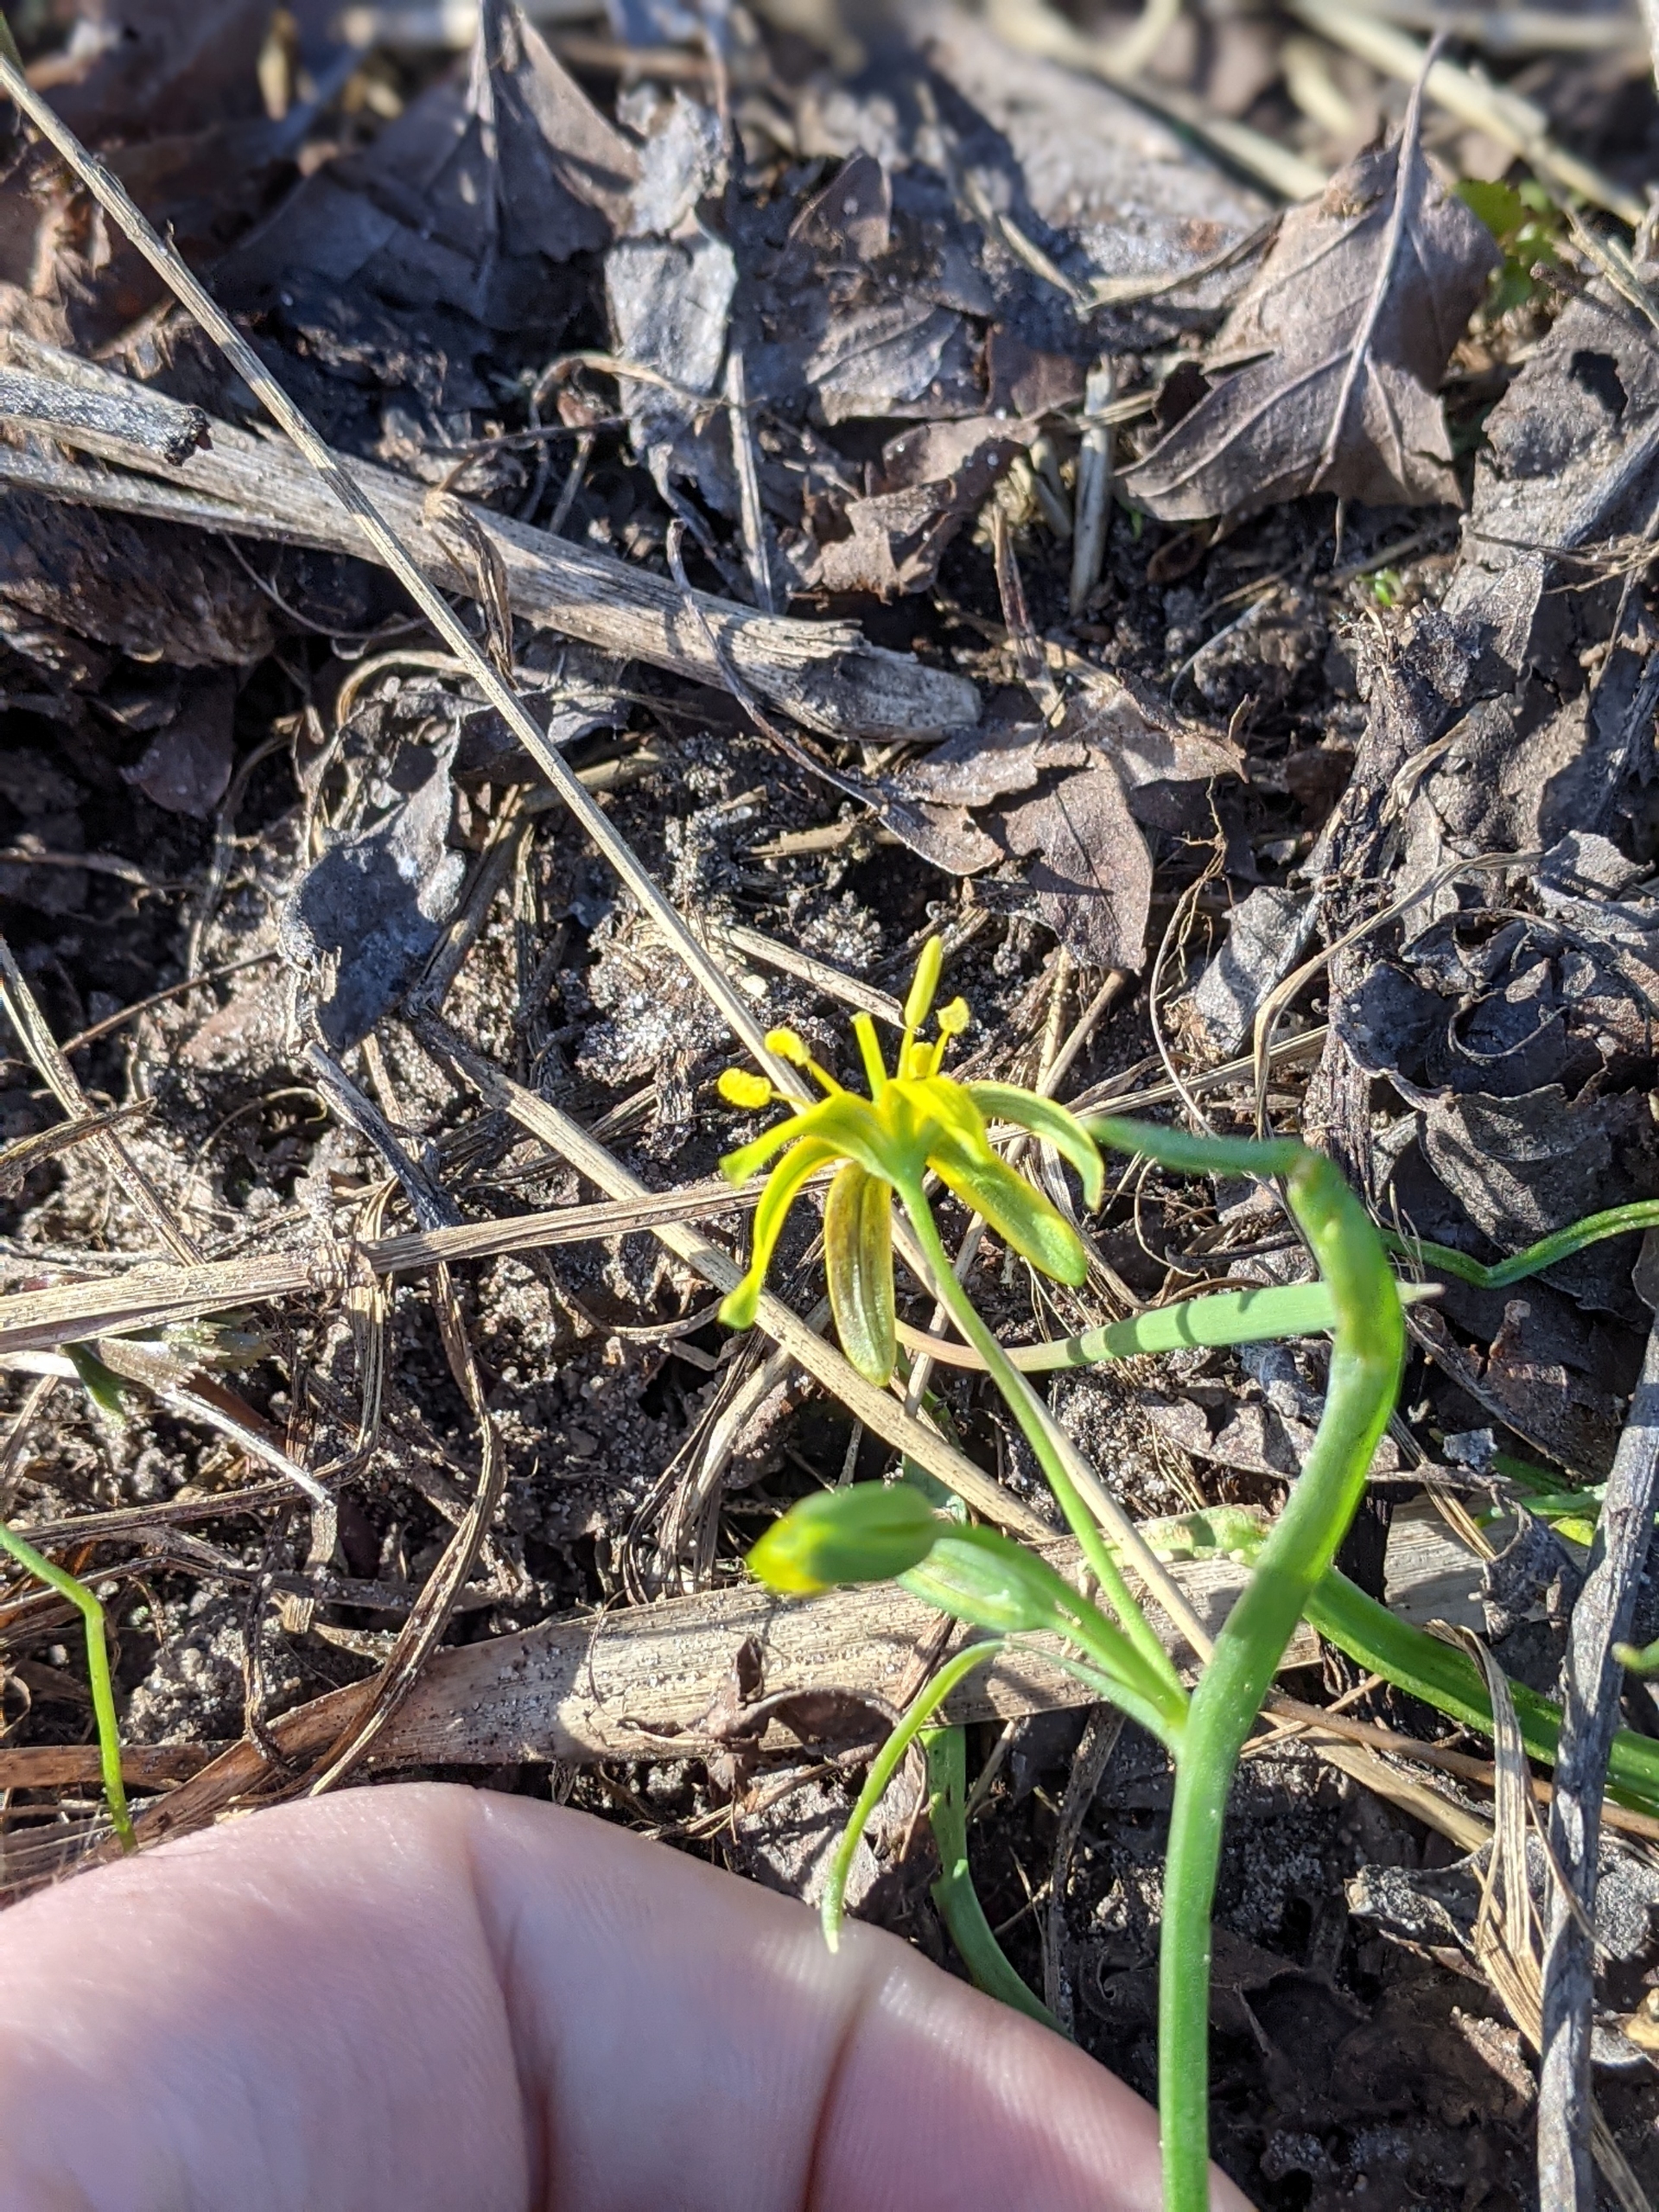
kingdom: Plantae
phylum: Tracheophyta
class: Liliopsida
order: Liliales
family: Liliaceae
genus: Gagea
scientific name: Gagea lutea
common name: Almindelig guldstjerne
